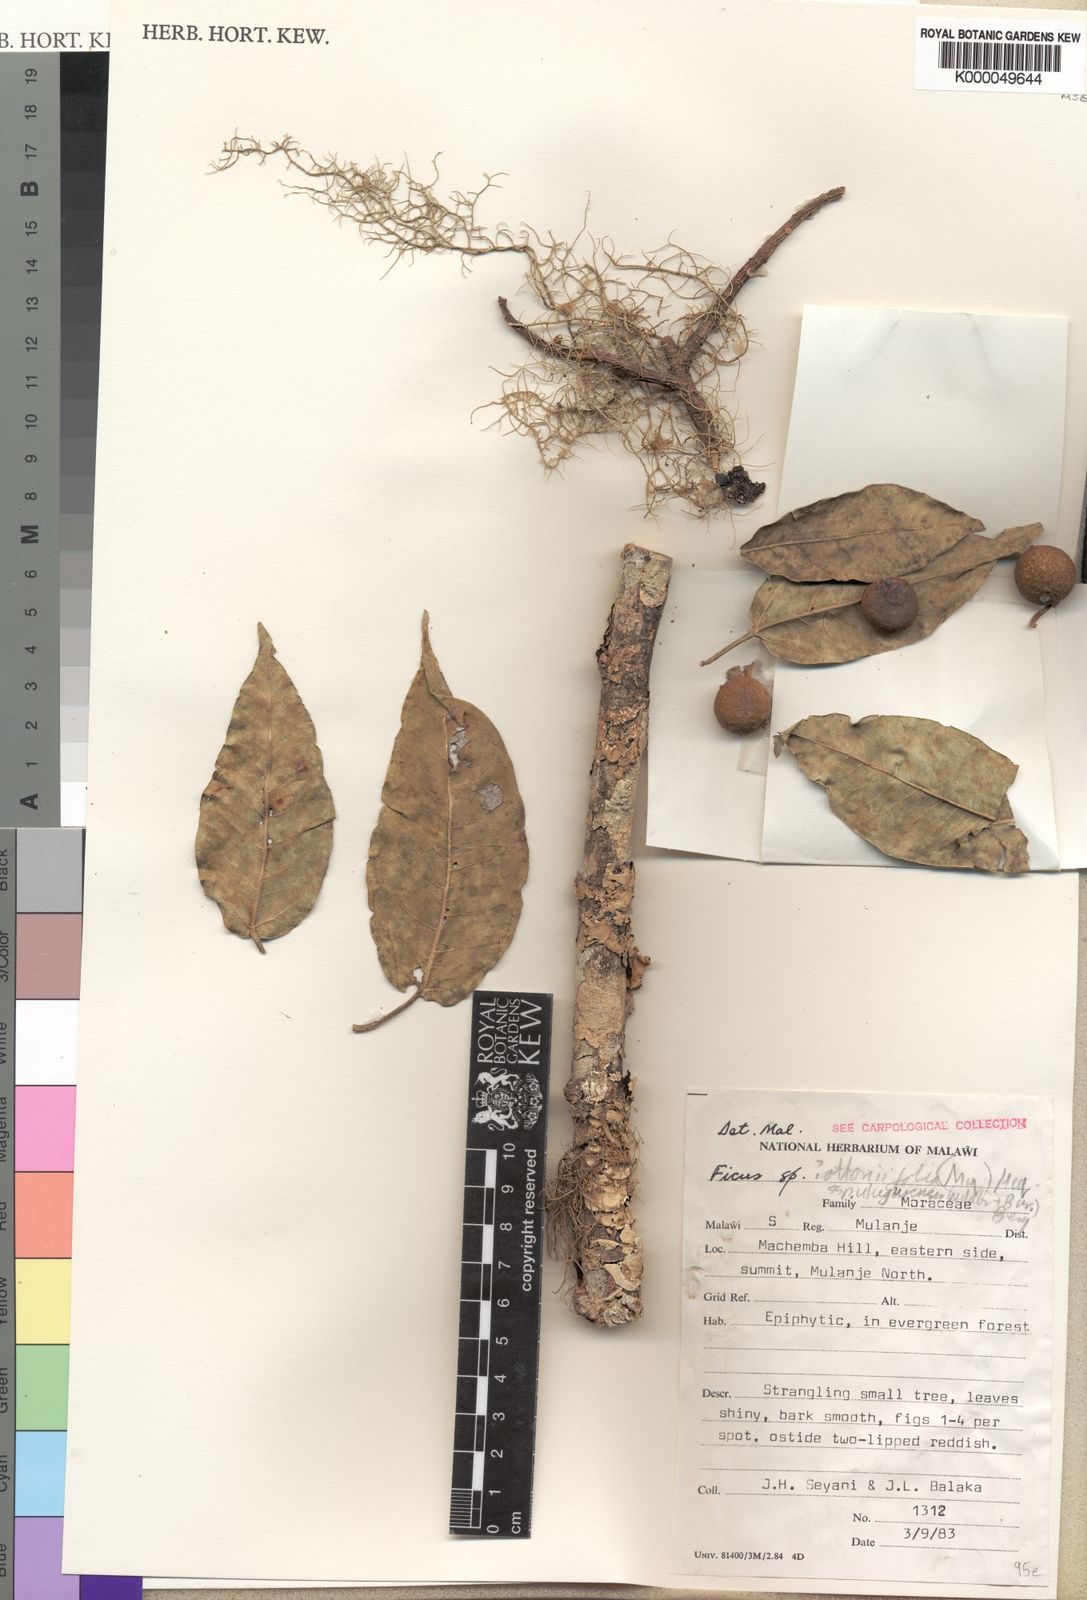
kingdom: Plantae
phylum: Tracheophyta
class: Magnoliopsida
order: Rosales
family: Moraceae
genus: Ficus
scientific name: Ficus ottoniifolia
